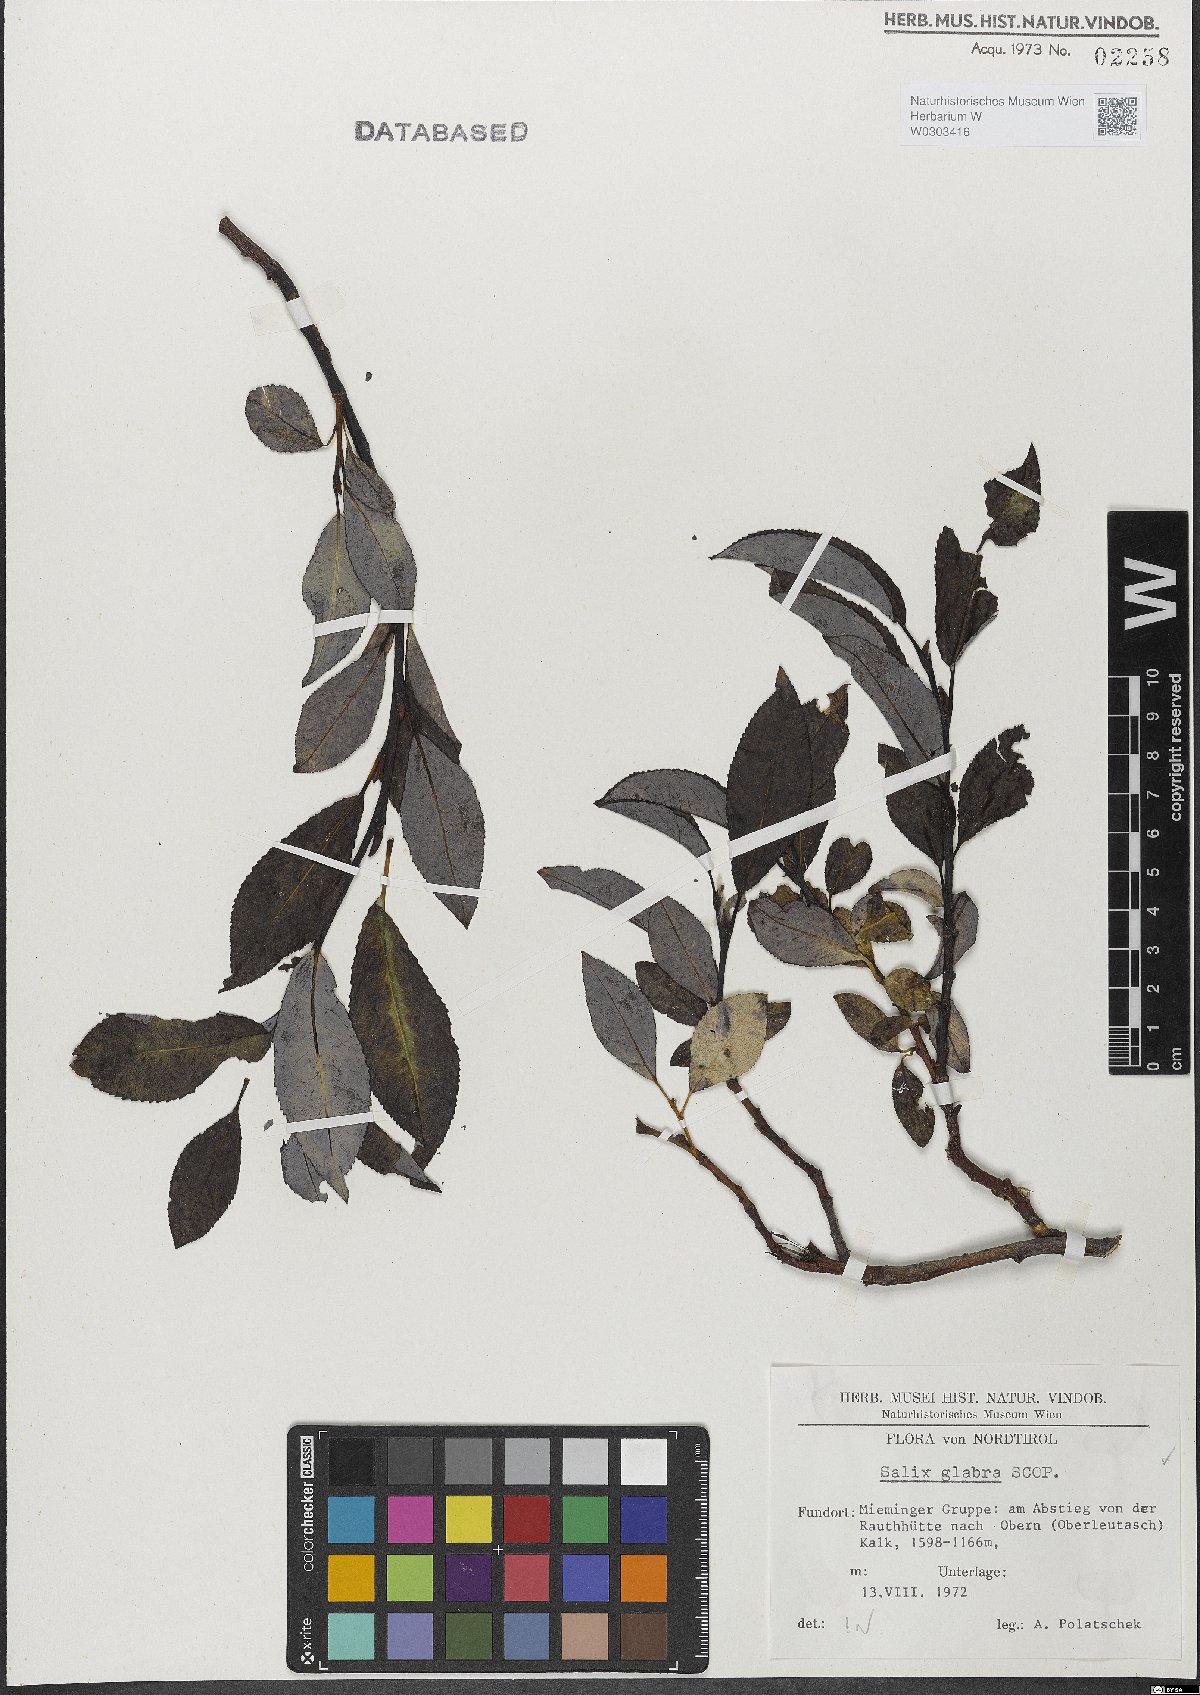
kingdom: Plantae
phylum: Tracheophyta
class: Magnoliopsida
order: Malpighiales
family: Salicaceae
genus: Salix
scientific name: Salix glabra
